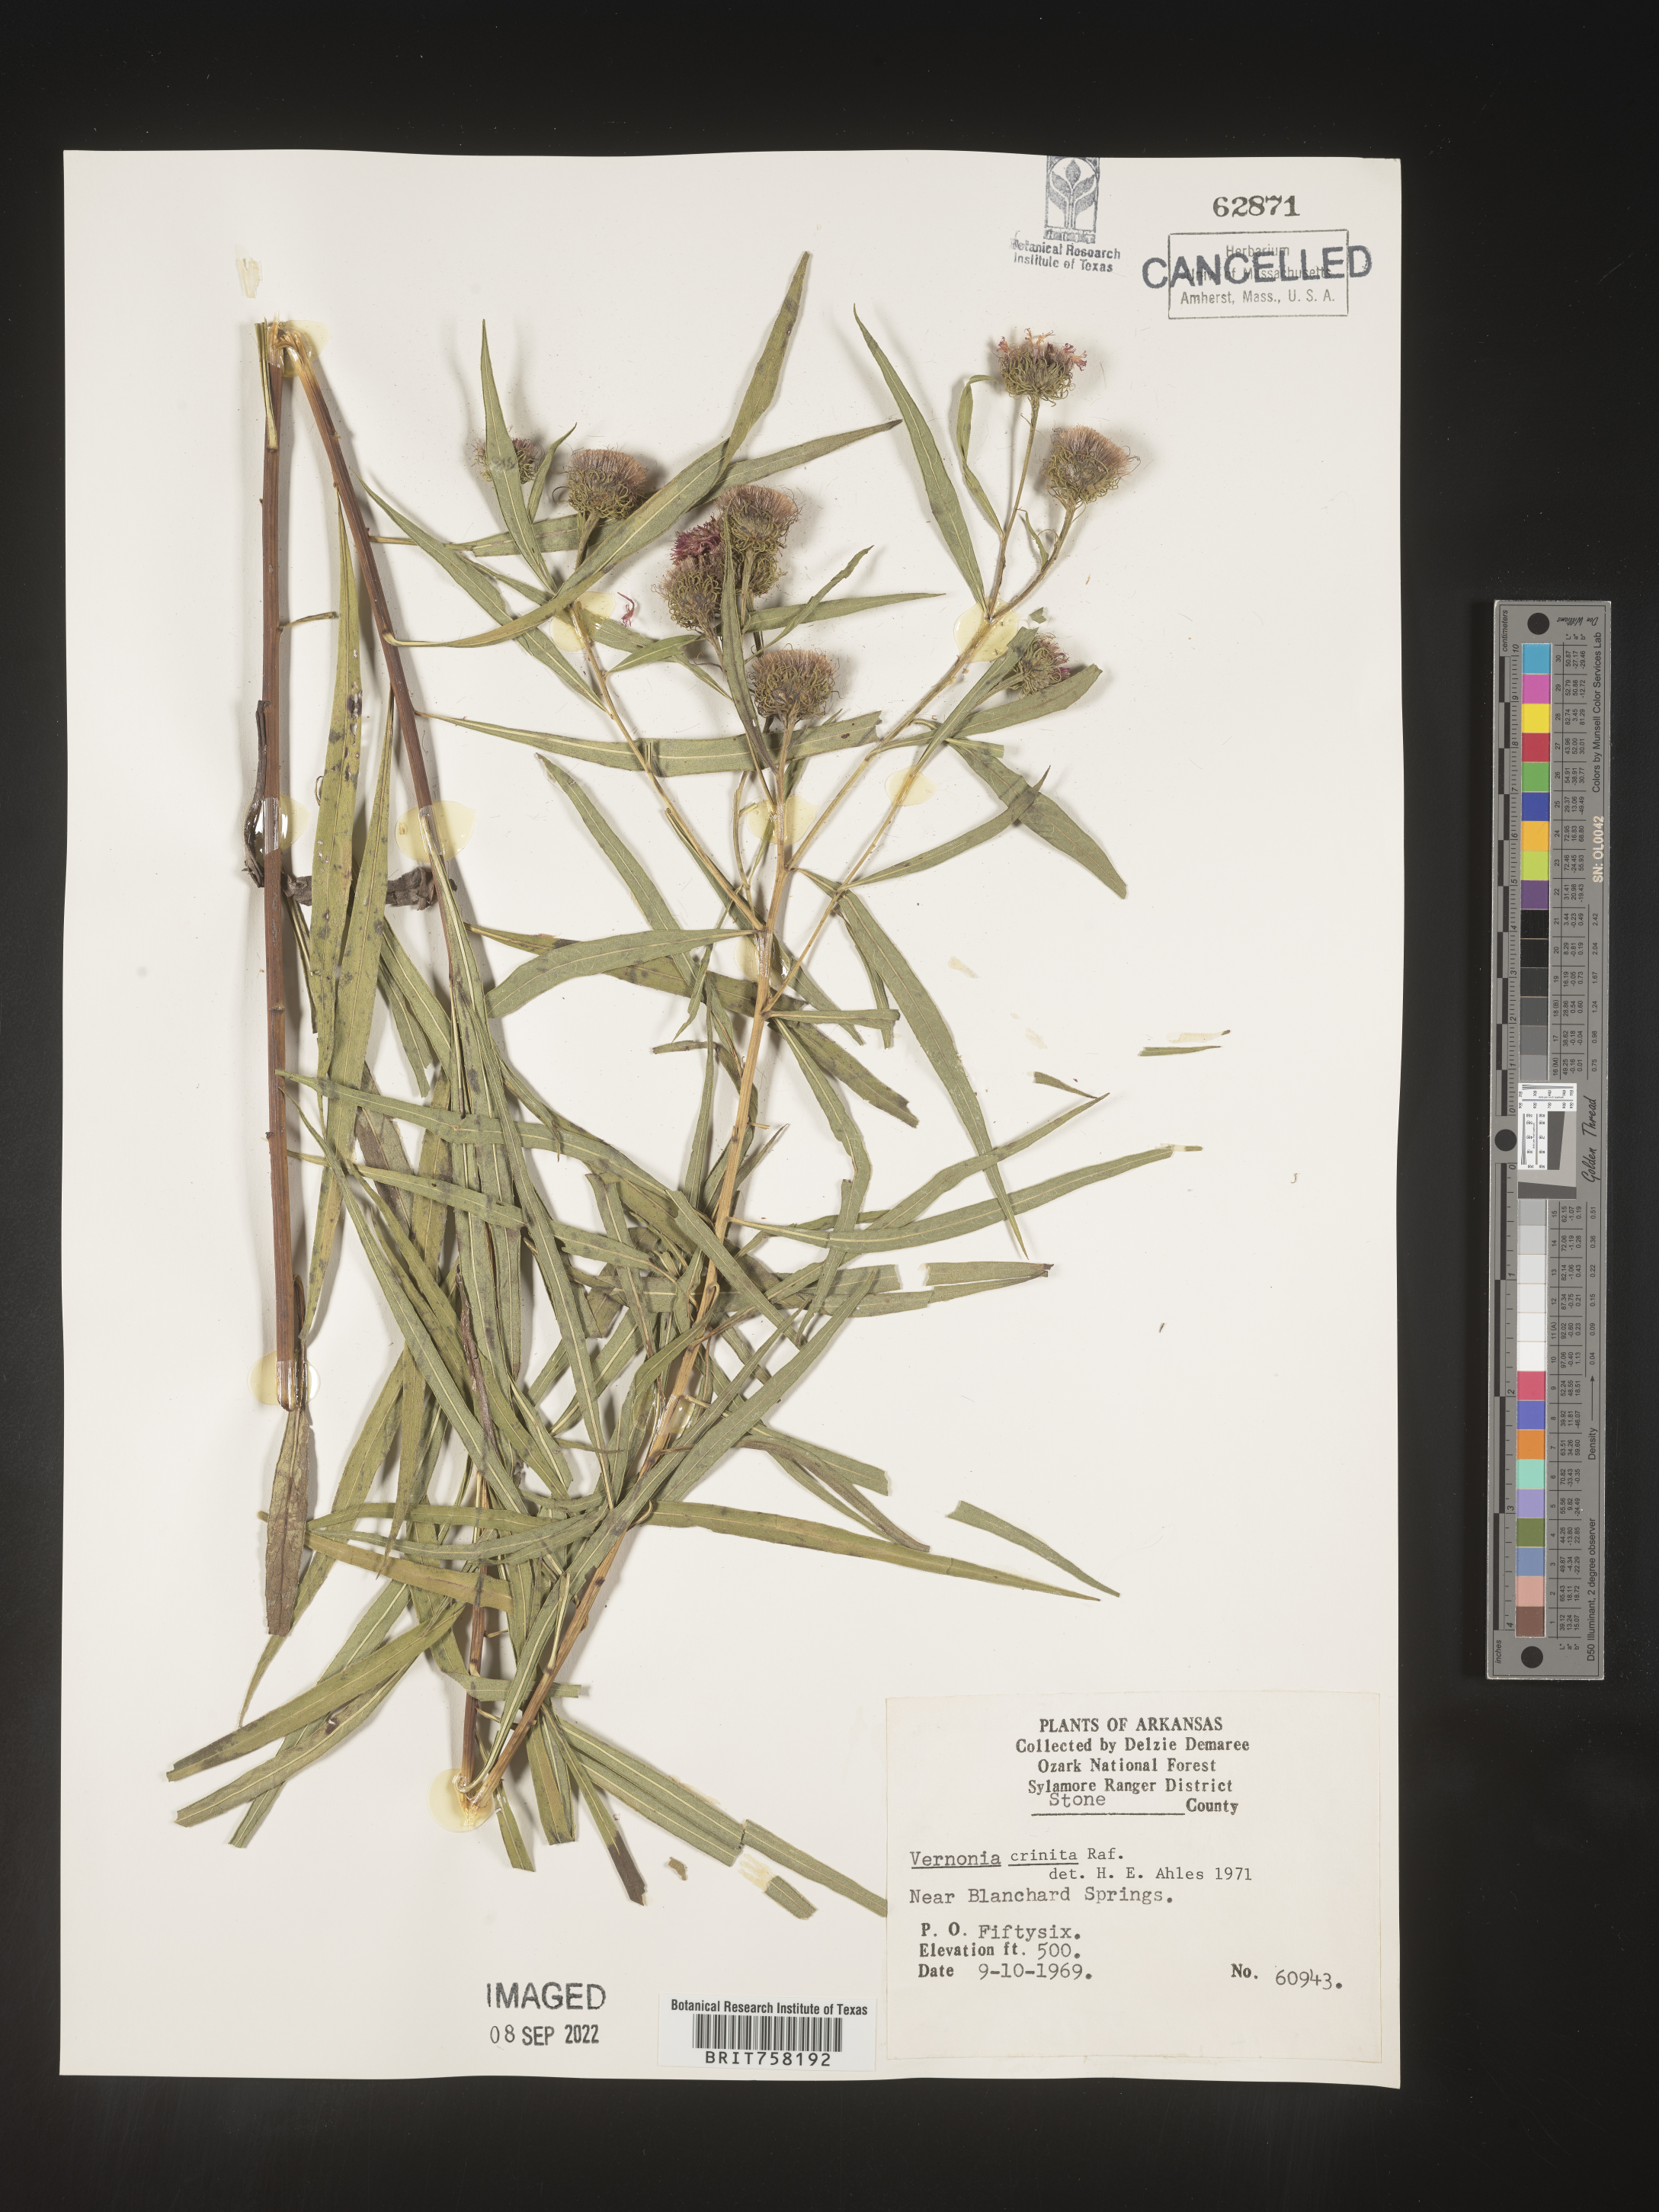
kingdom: Plantae
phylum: Tracheophyta
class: Magnoliopsida
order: Asterales
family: Asteraceae
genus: Vernonia
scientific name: Vernonia arkansana
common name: Ozark ironweed
